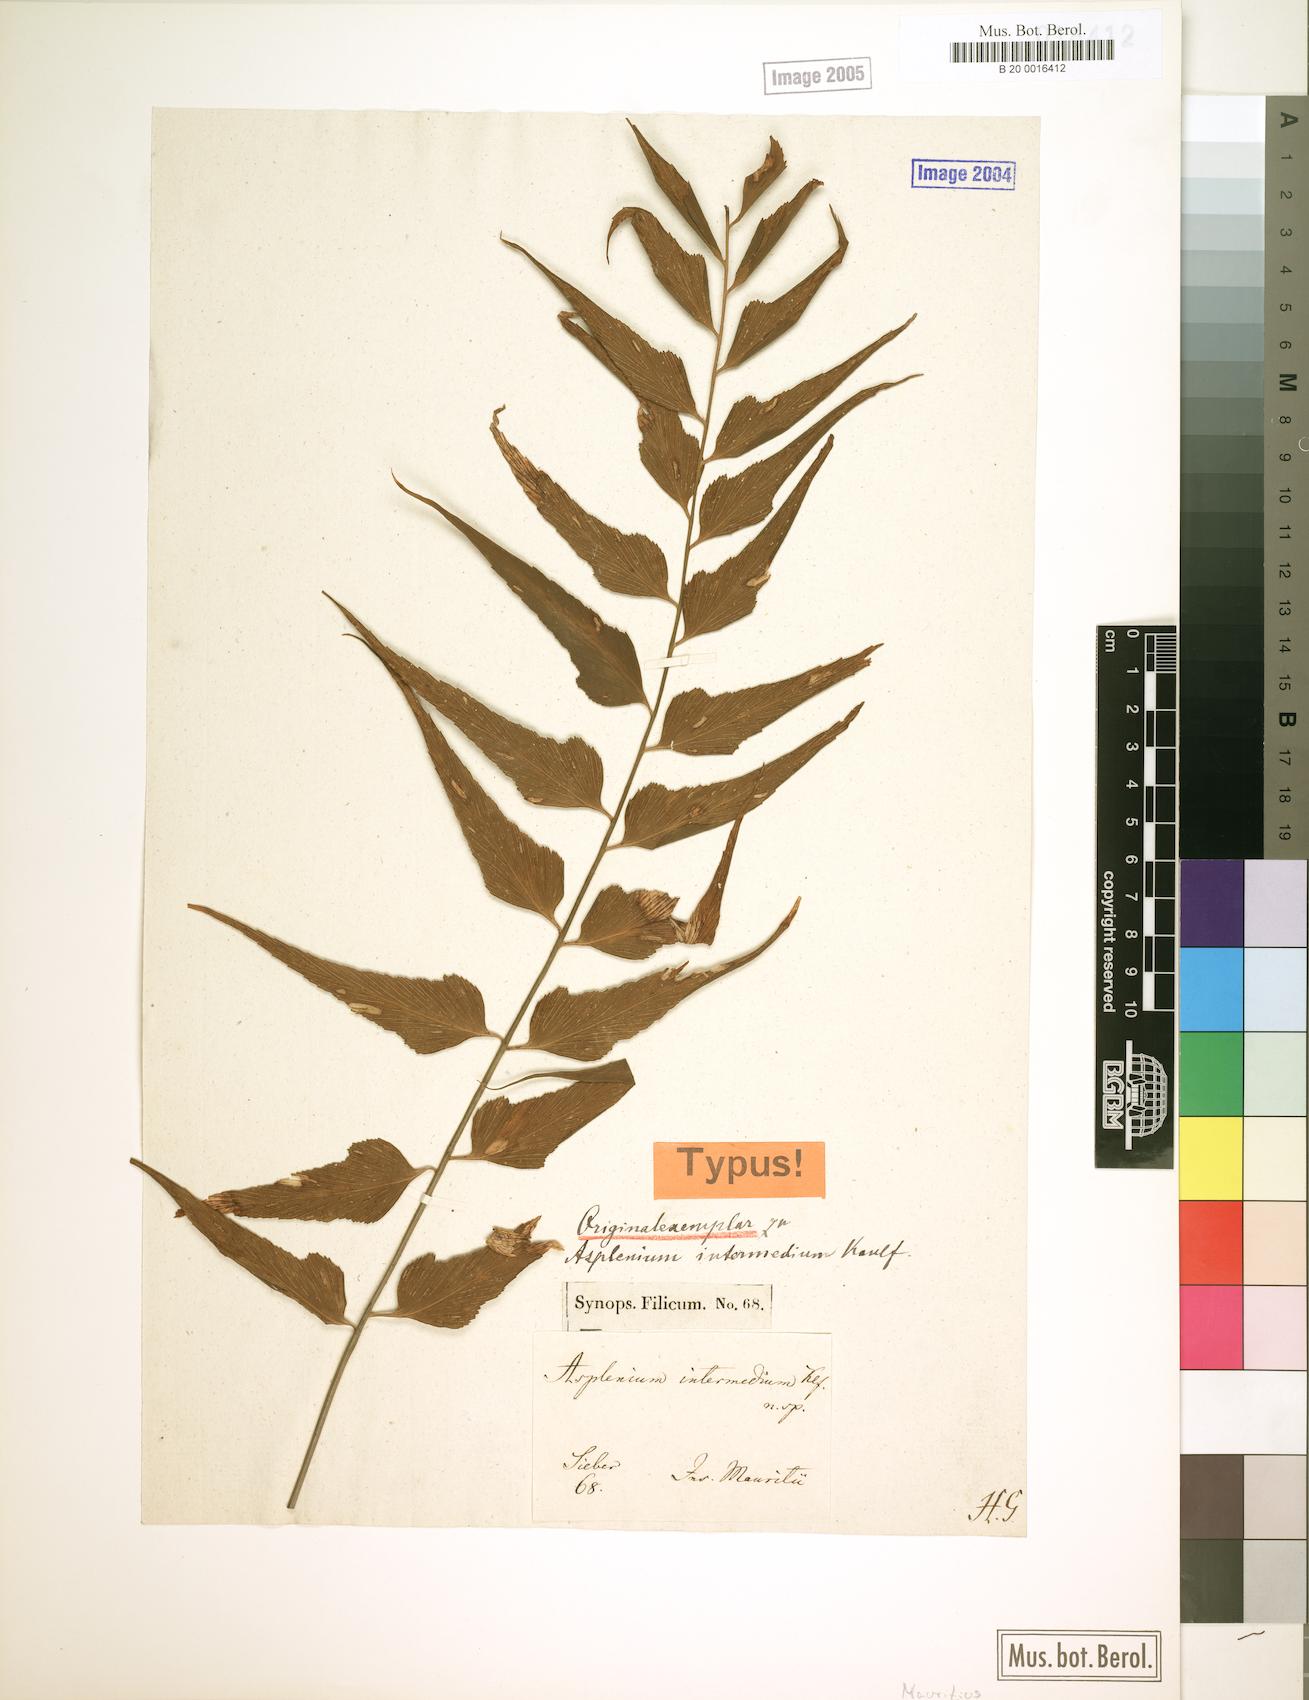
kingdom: Plantae
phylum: Tracheophyta
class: Polypodiopsida
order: Polypodiales
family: Aspleniaceae
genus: Asplenium
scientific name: Asplenium simile
